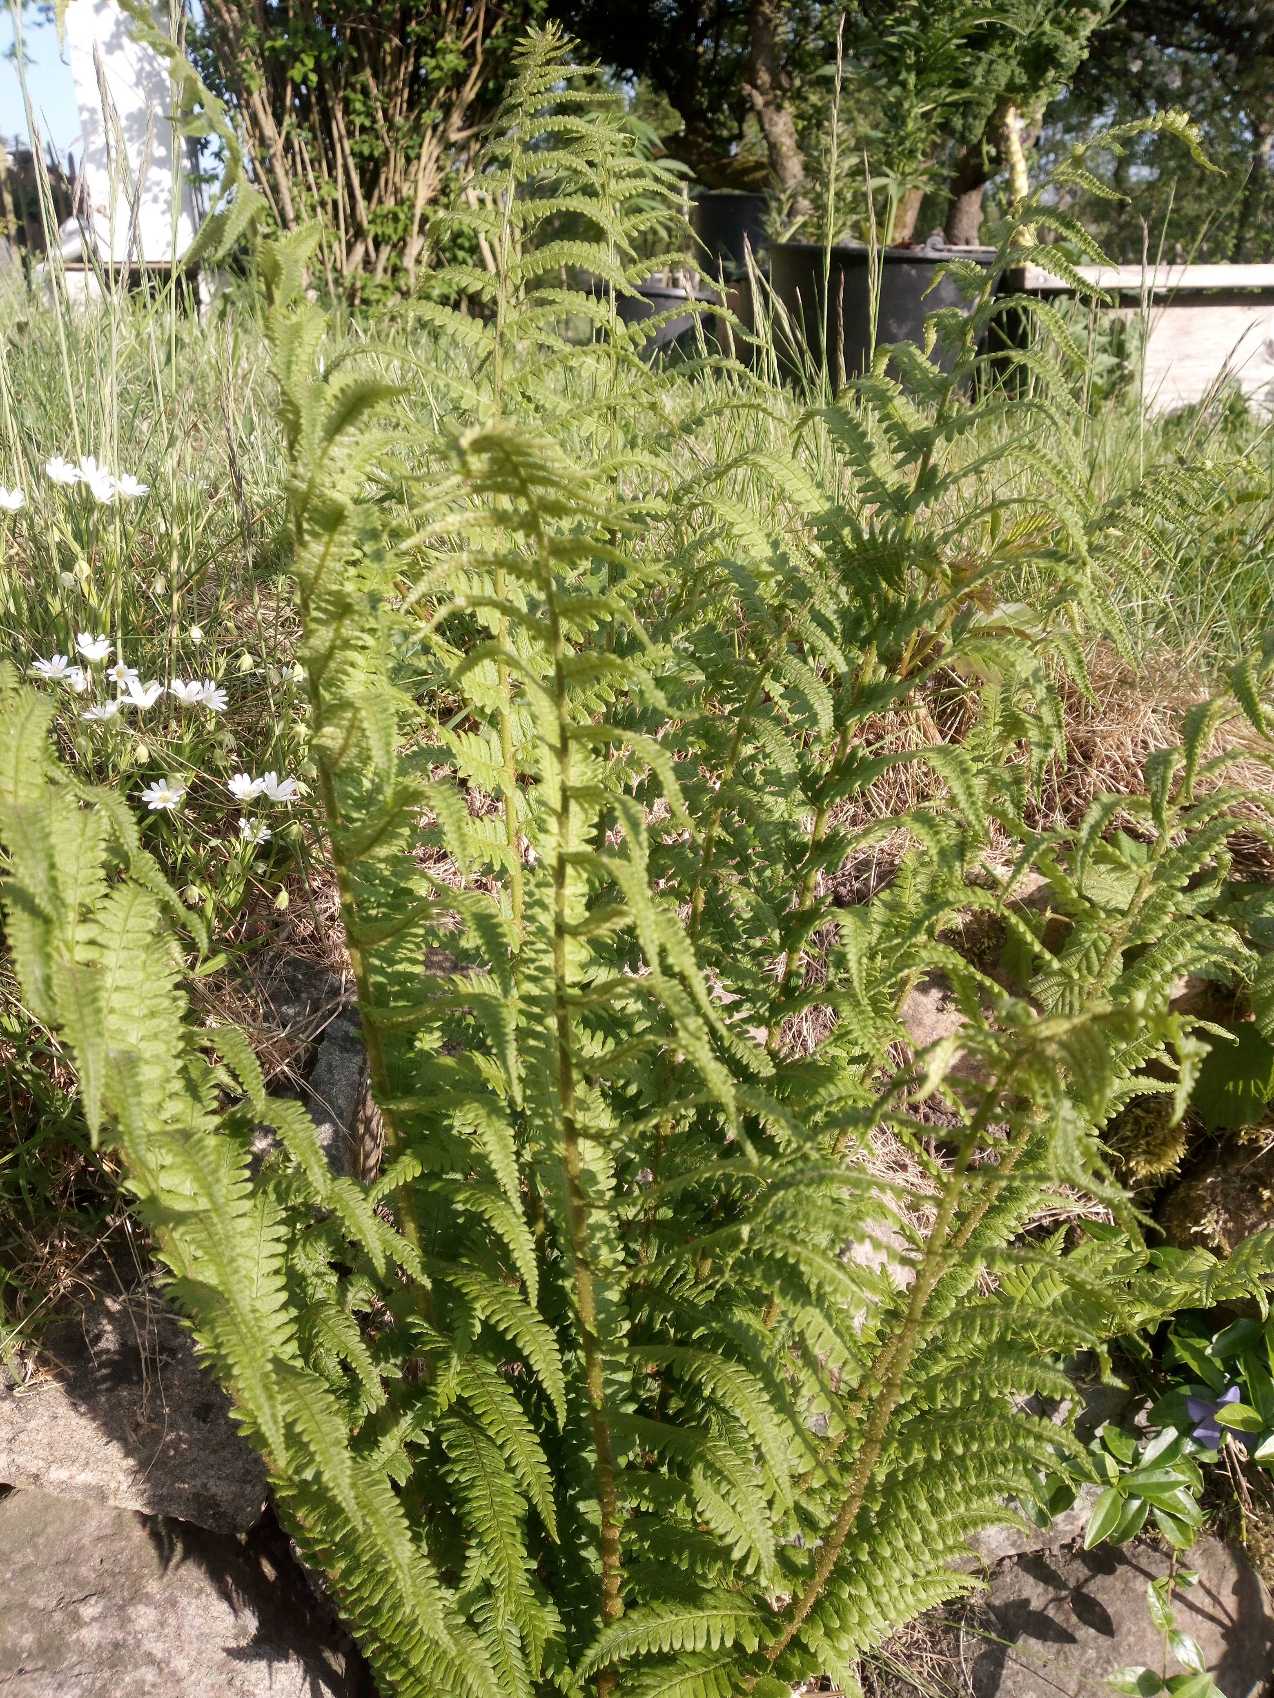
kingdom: Plantae
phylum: Tracheophyta
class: Polypodiopsida
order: Polypodiales
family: Dryopteridaceae
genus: Dryopteris
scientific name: Dryopteris filix-mas
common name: Almindelig mangeløv
